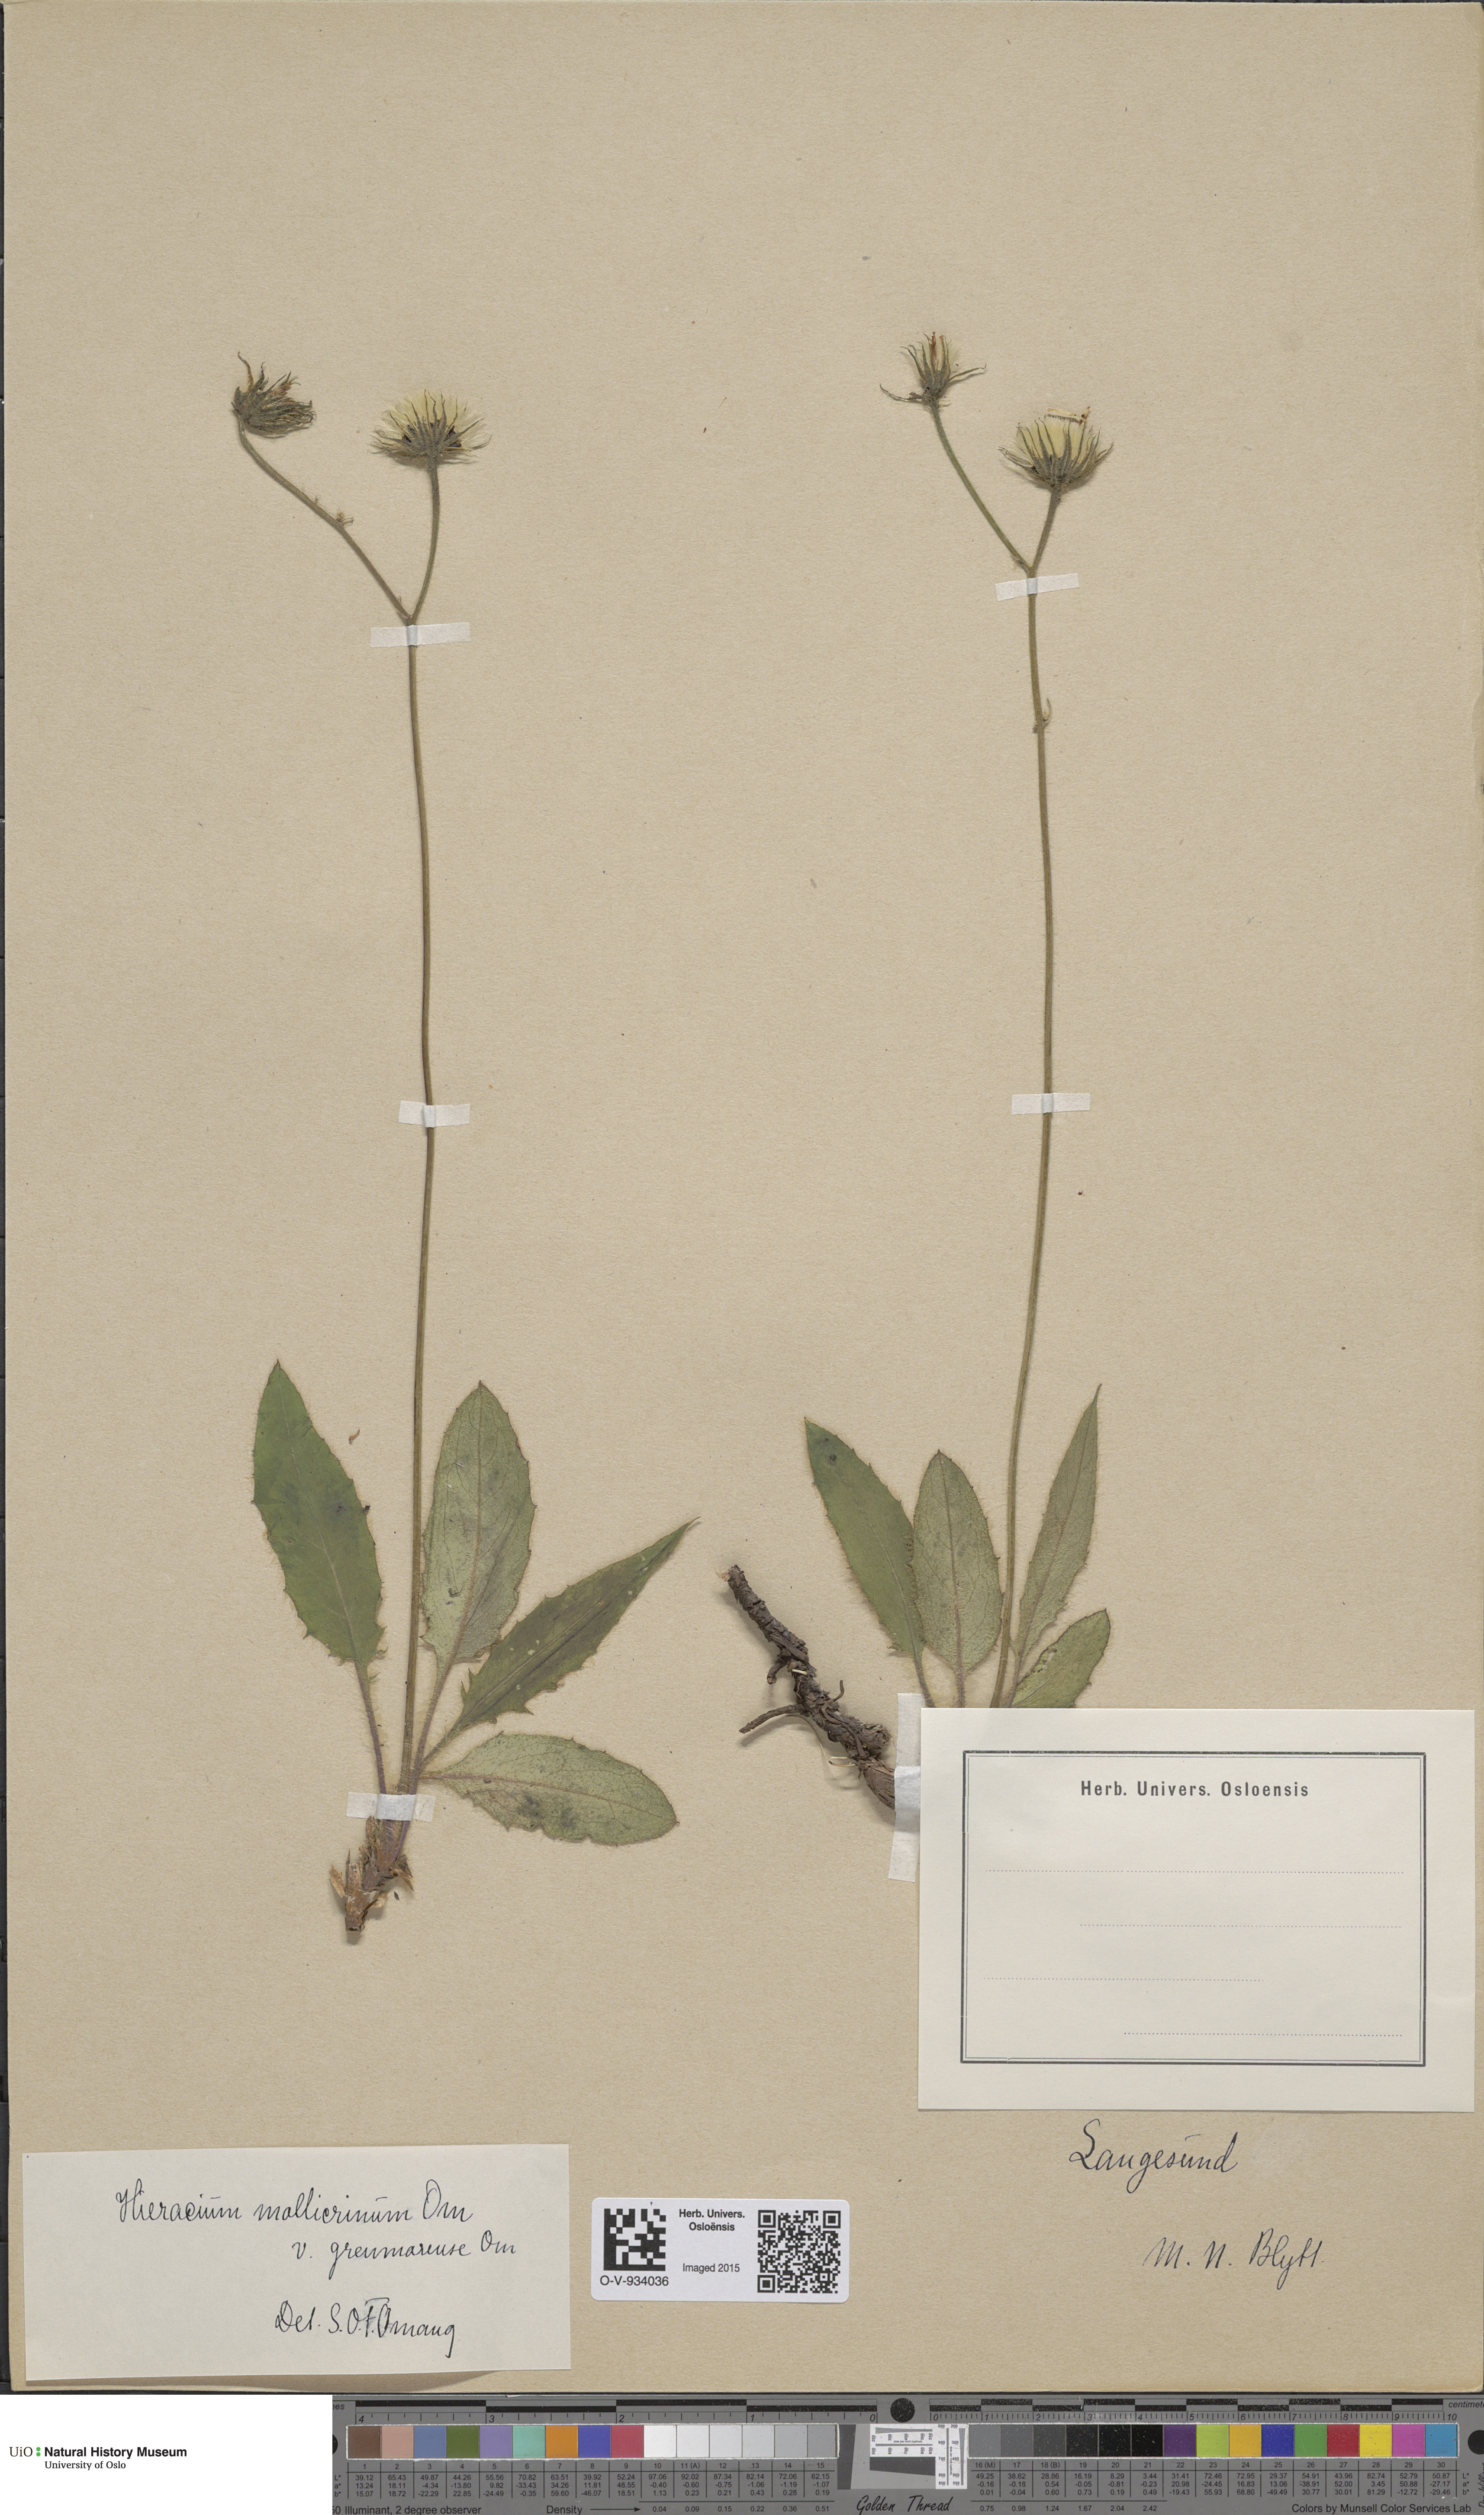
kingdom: Plantae
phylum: Tracheophyta
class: Magnoliopsida
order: Asterales
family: Asteraceae
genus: Hieracium
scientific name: Hieracium schmidtii
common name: Schmidt's hawkweed
